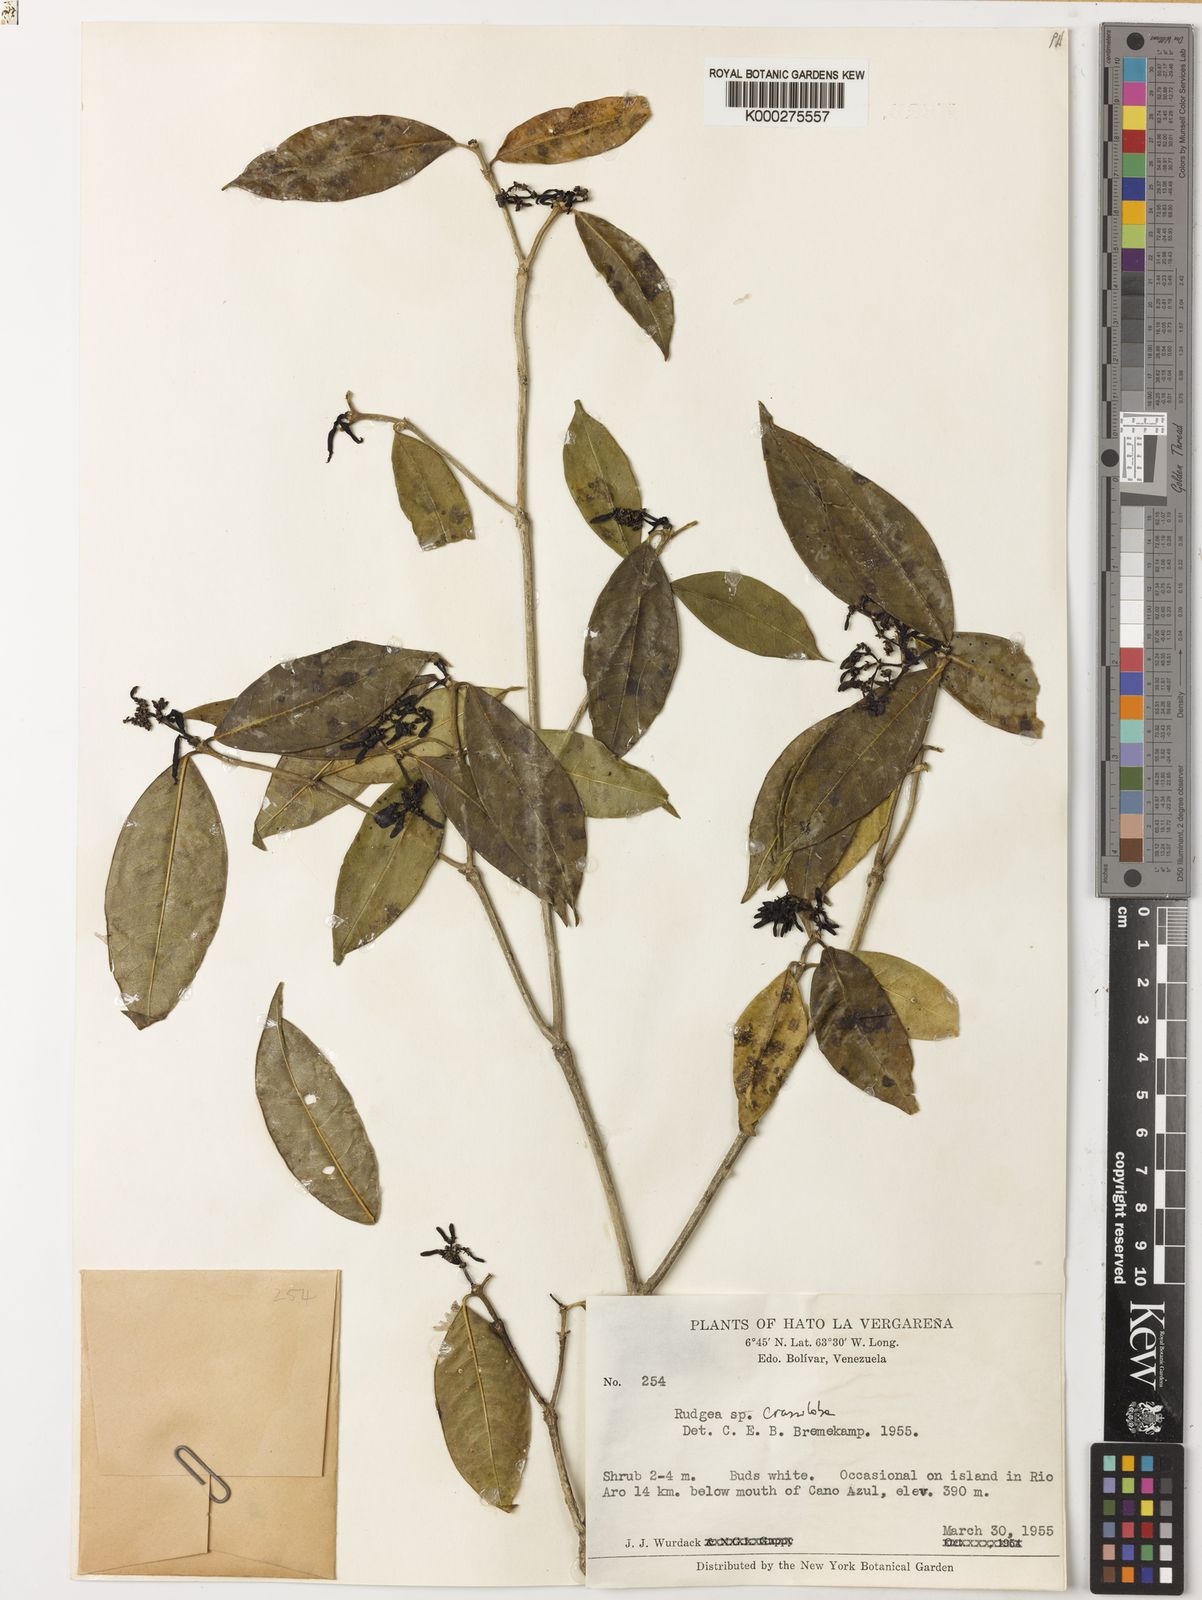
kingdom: Plantae
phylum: Tracheophyta
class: Magnoliopsida
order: Gentianales
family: Rubiaceae
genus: Rudgea
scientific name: Rudgea crassiloba
